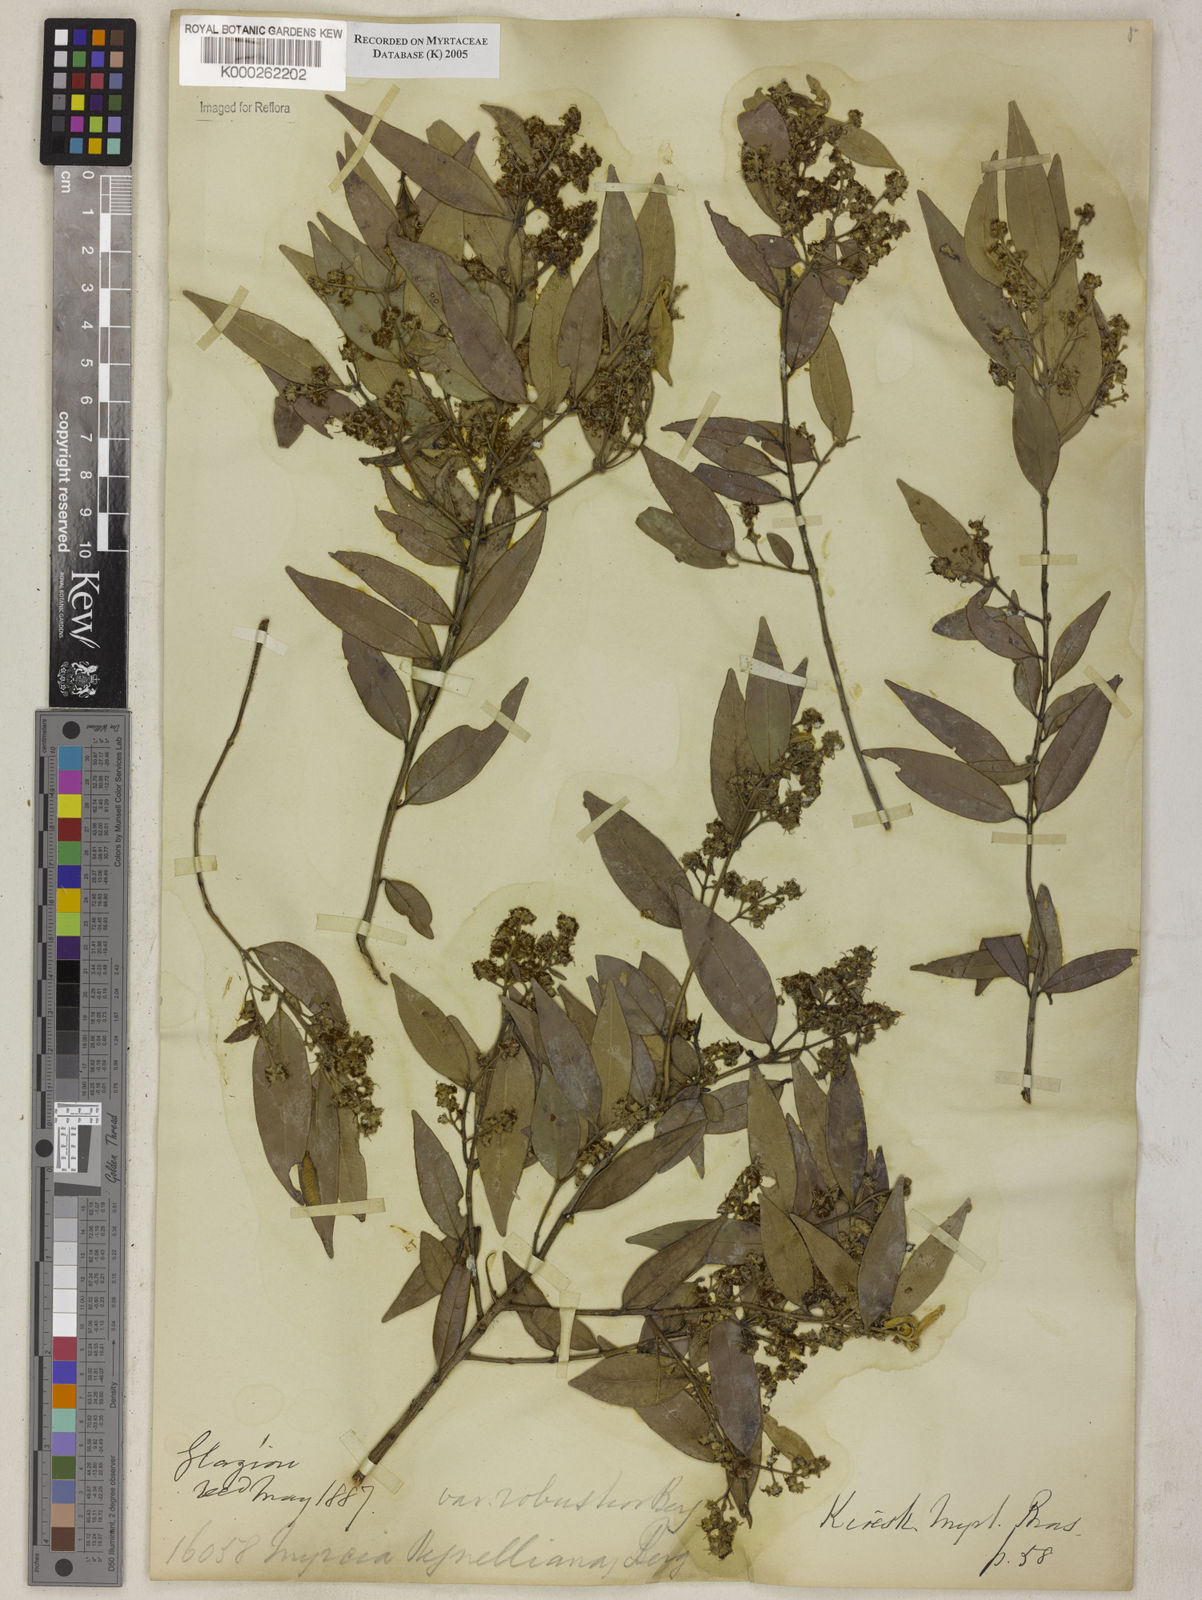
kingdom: Plantae
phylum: Tracheophyta
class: Magnoliopsida
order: Myrtales
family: Myrtaceae
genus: Myrcia
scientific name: Myrcia regnelliana
